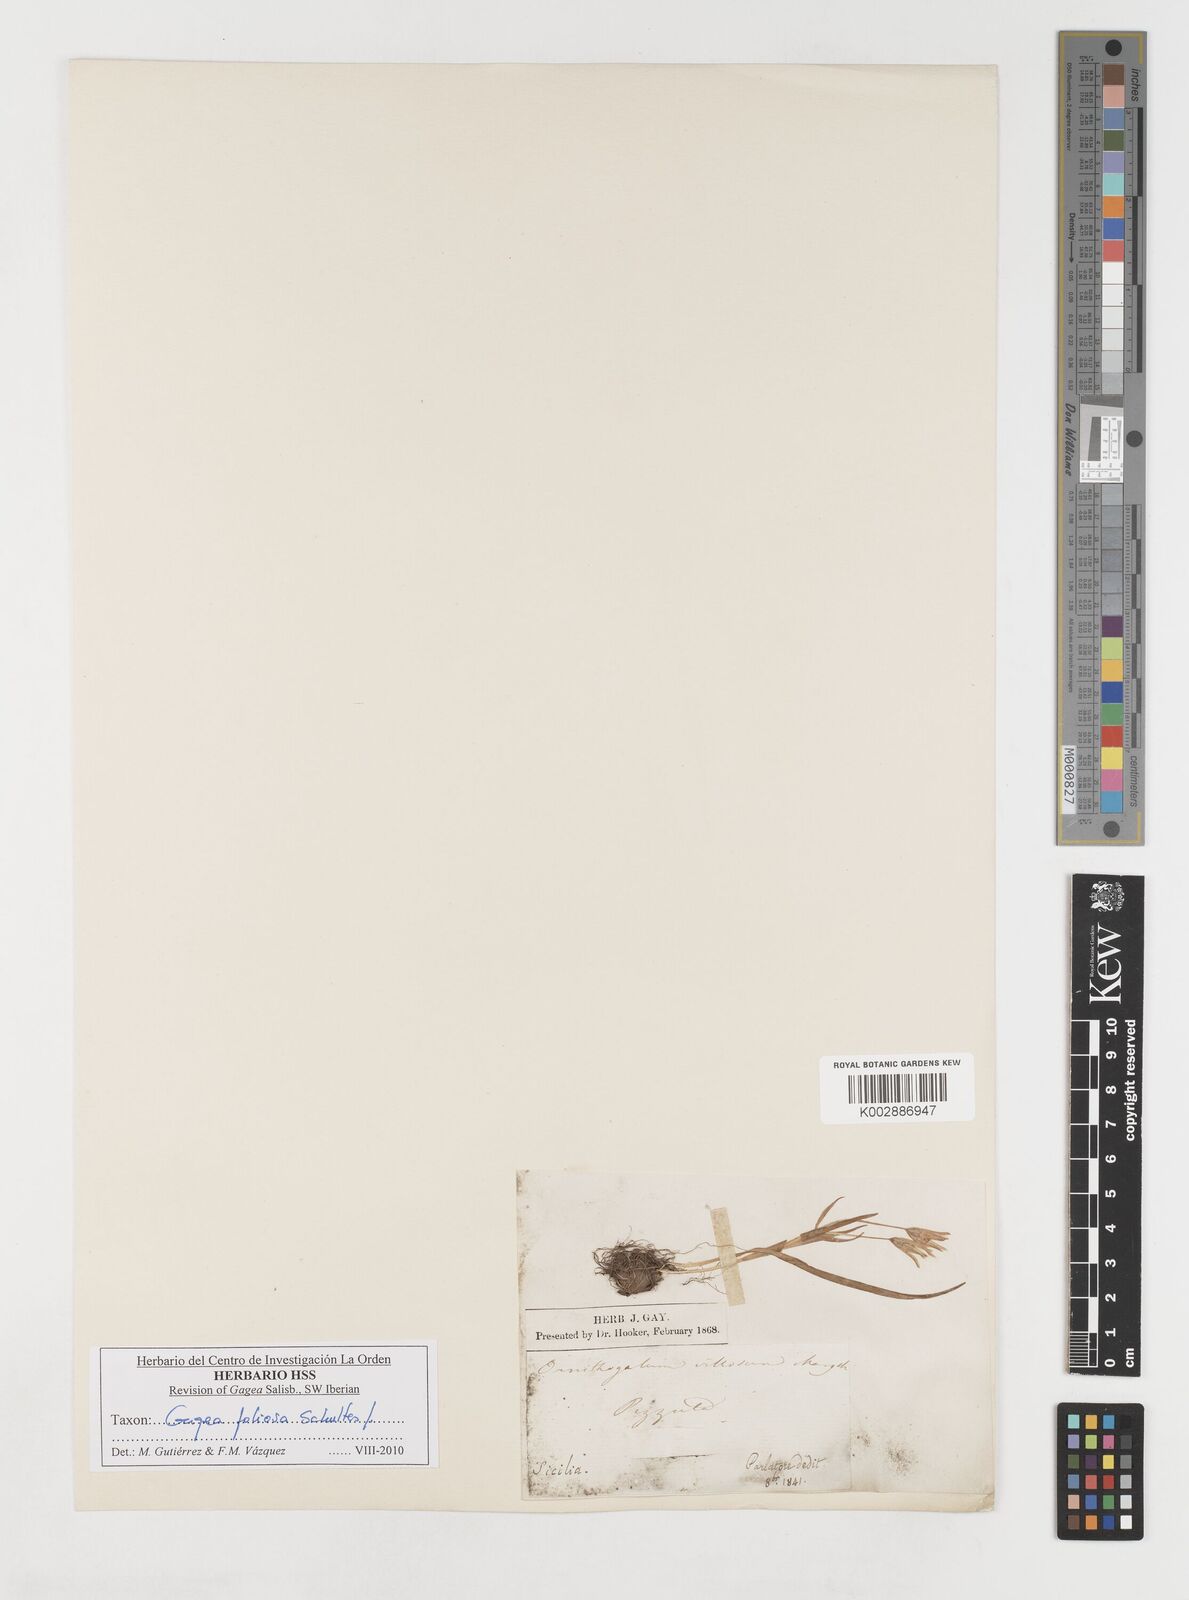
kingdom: Plantae
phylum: Tracheophyta
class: Liliopsida
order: Liliales
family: Liliaceae
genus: Gagea
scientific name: Gagea foliosa
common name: Leafy gagea
